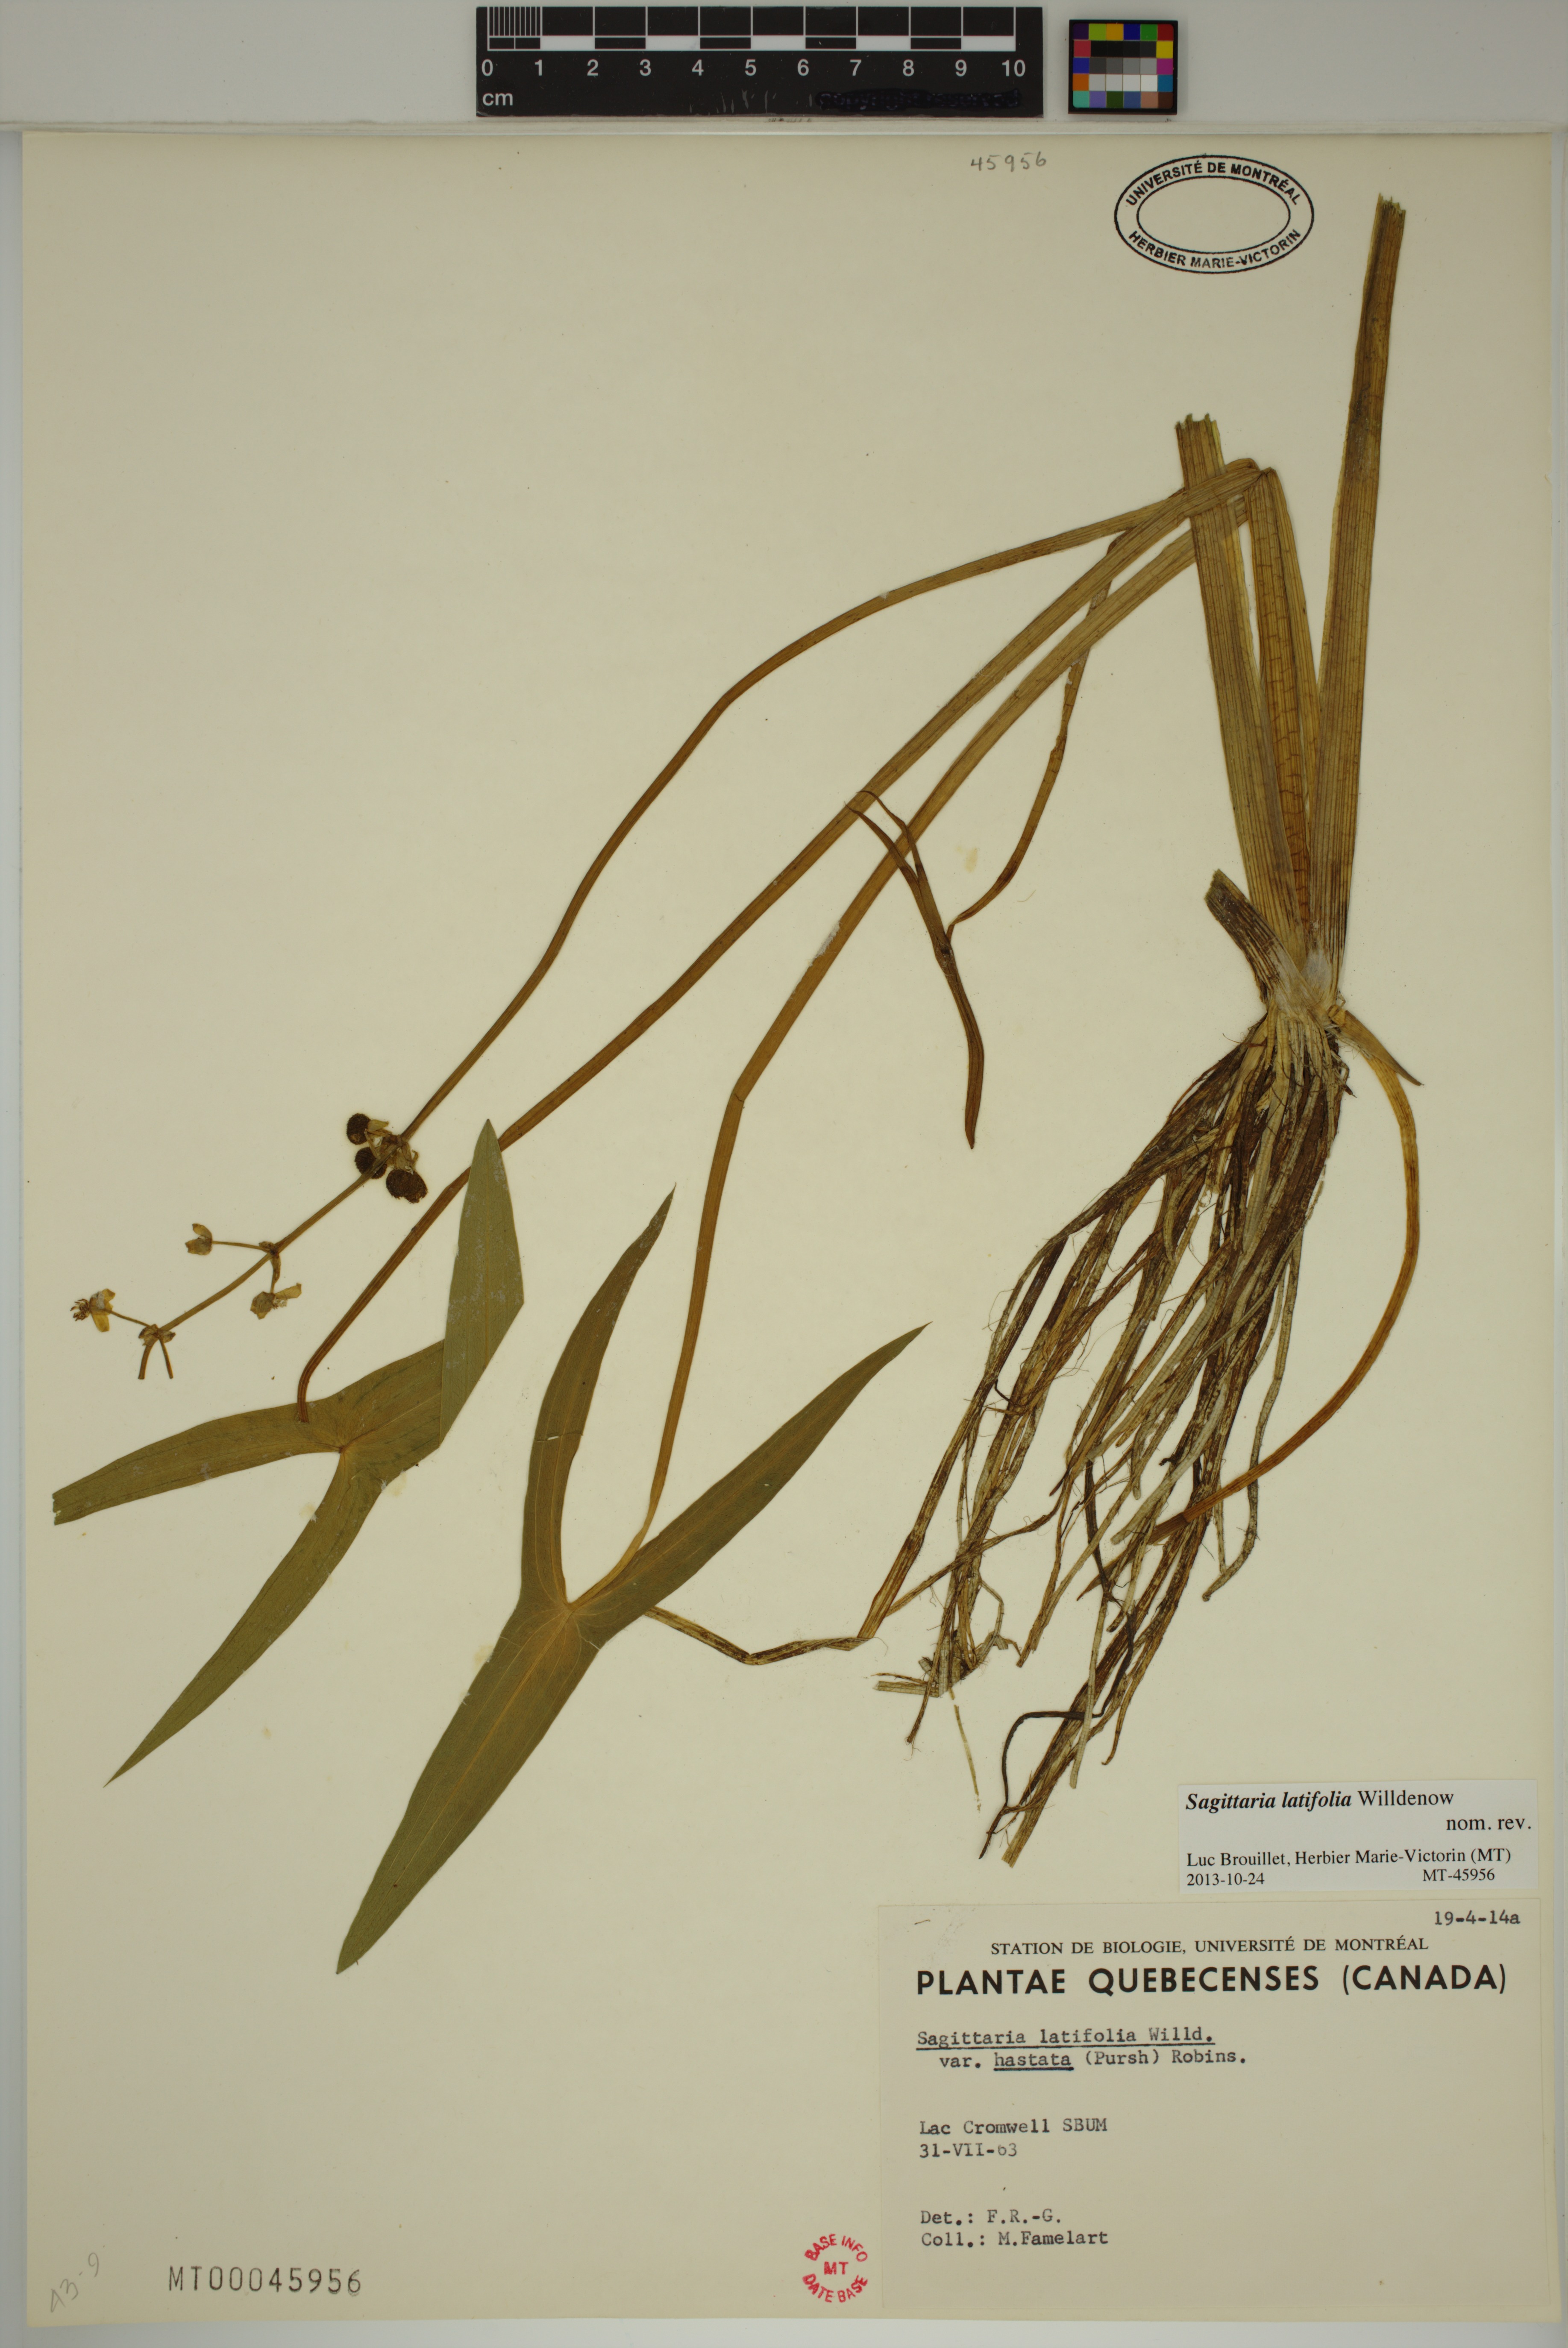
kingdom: Plantae
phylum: Tracheophyta
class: Liliopsida
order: Alismatales
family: Alismataceae
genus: Sagittaria
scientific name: Sagittaria latifolia
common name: Duck-potato
